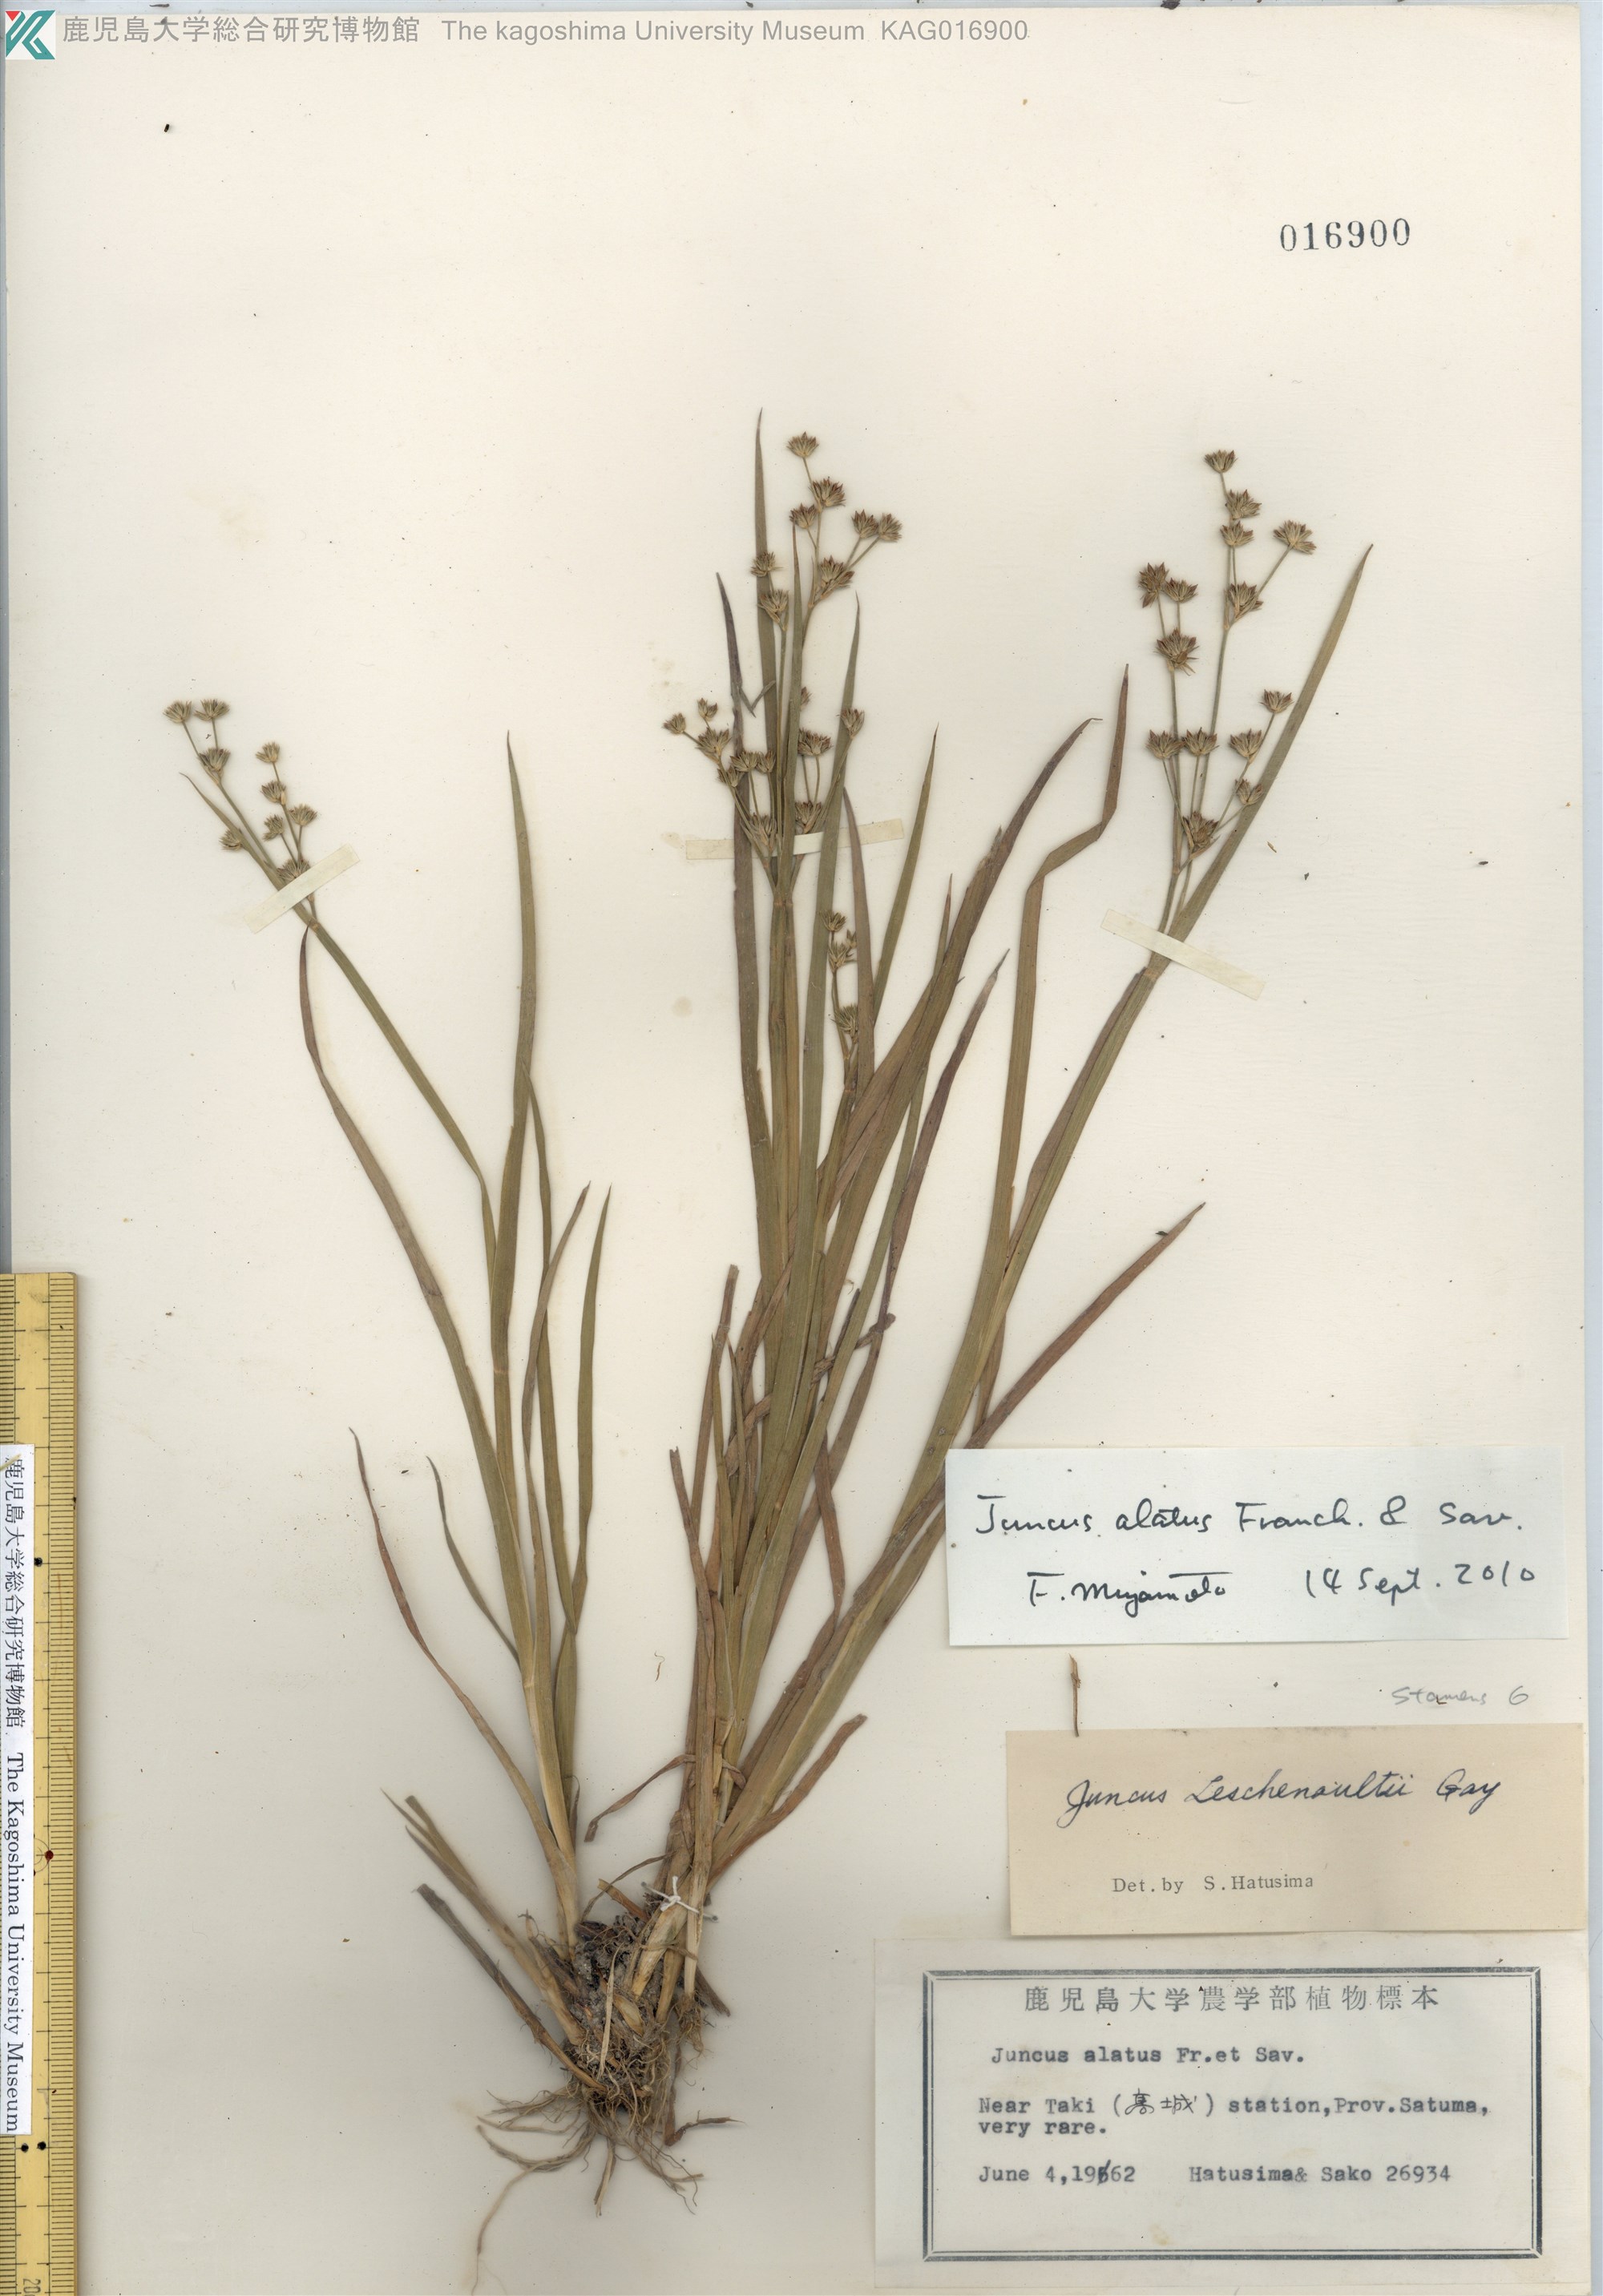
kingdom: Plantae
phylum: Tracheophyta
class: Liliopsida
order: Poales
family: Juncaceae
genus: Juncus
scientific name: Juncus alatus
